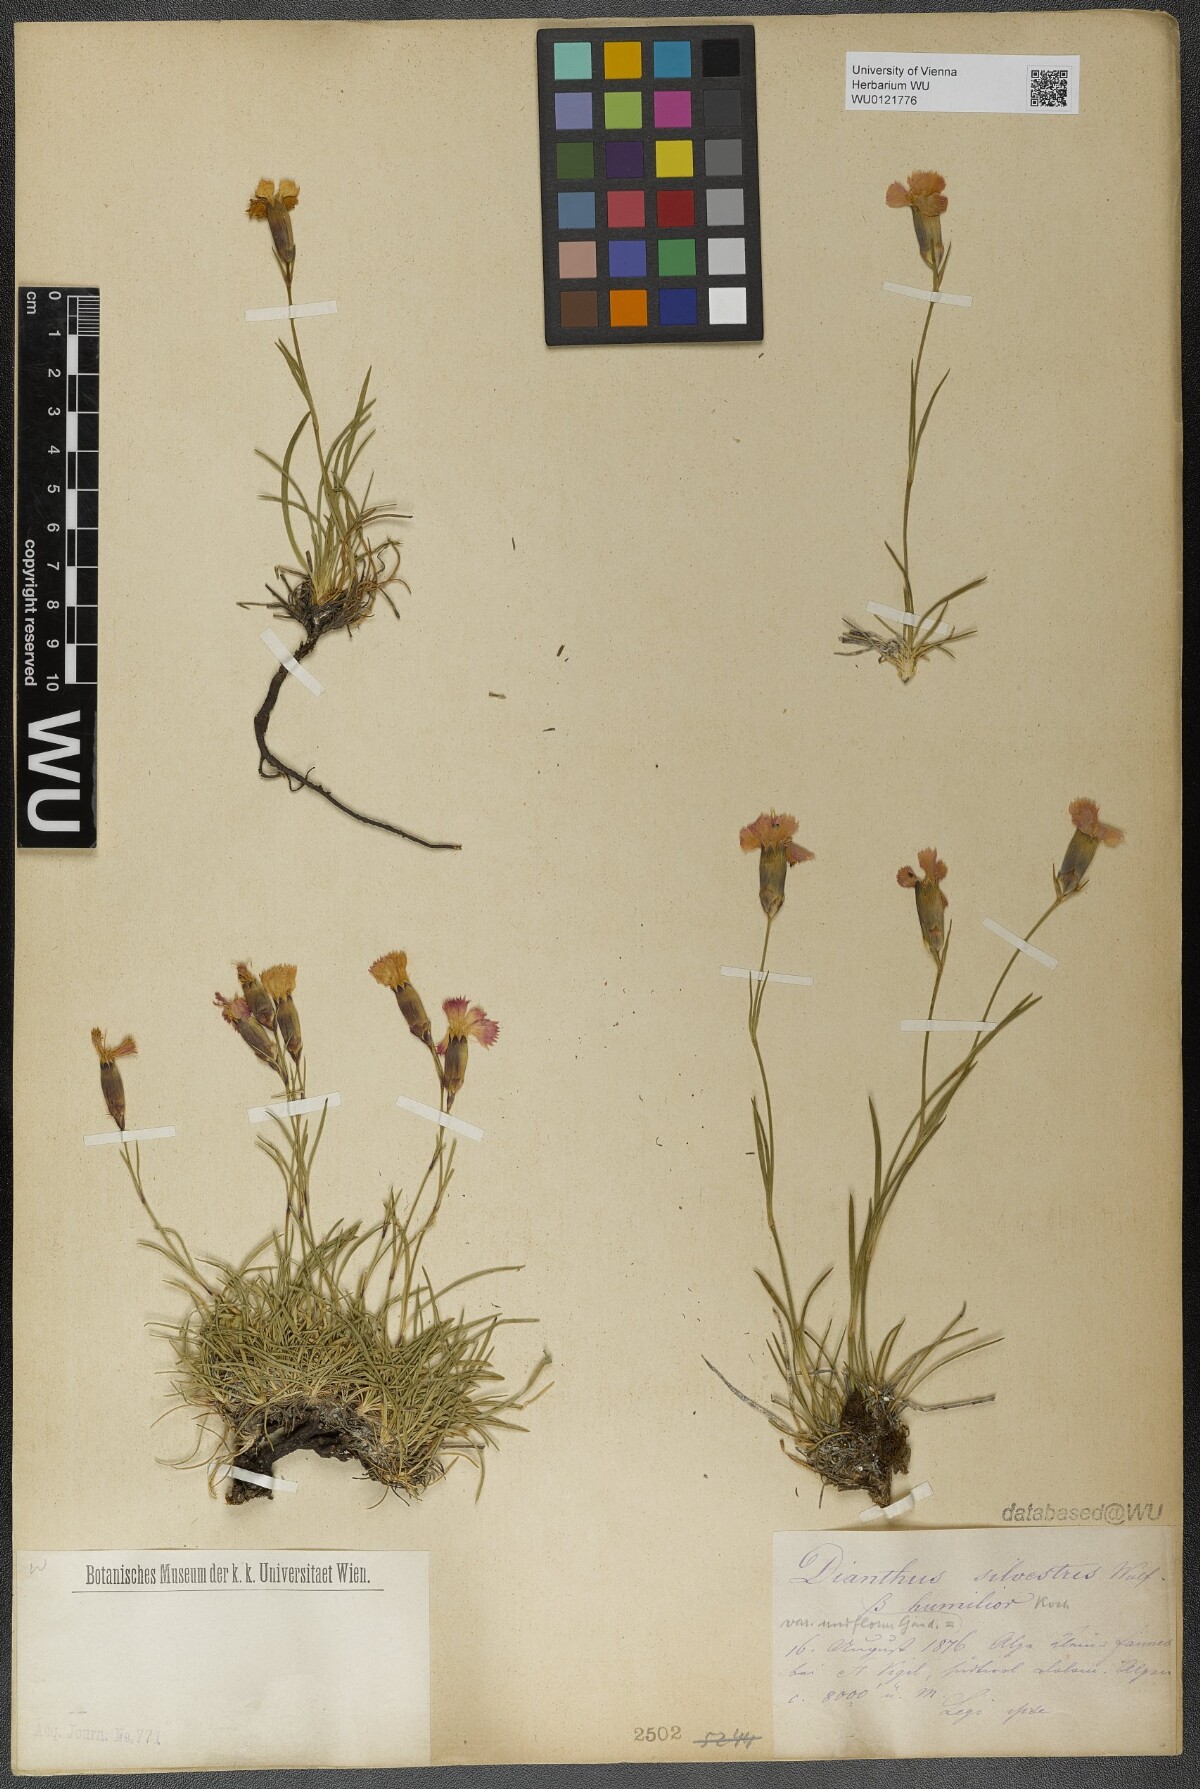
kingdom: Plantae
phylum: Tracheophyta
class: Magnoliopsida
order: Caryophyllales
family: Caryophyllaceae
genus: Dianthus
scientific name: Dianthus sylvestris
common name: Wood pink
